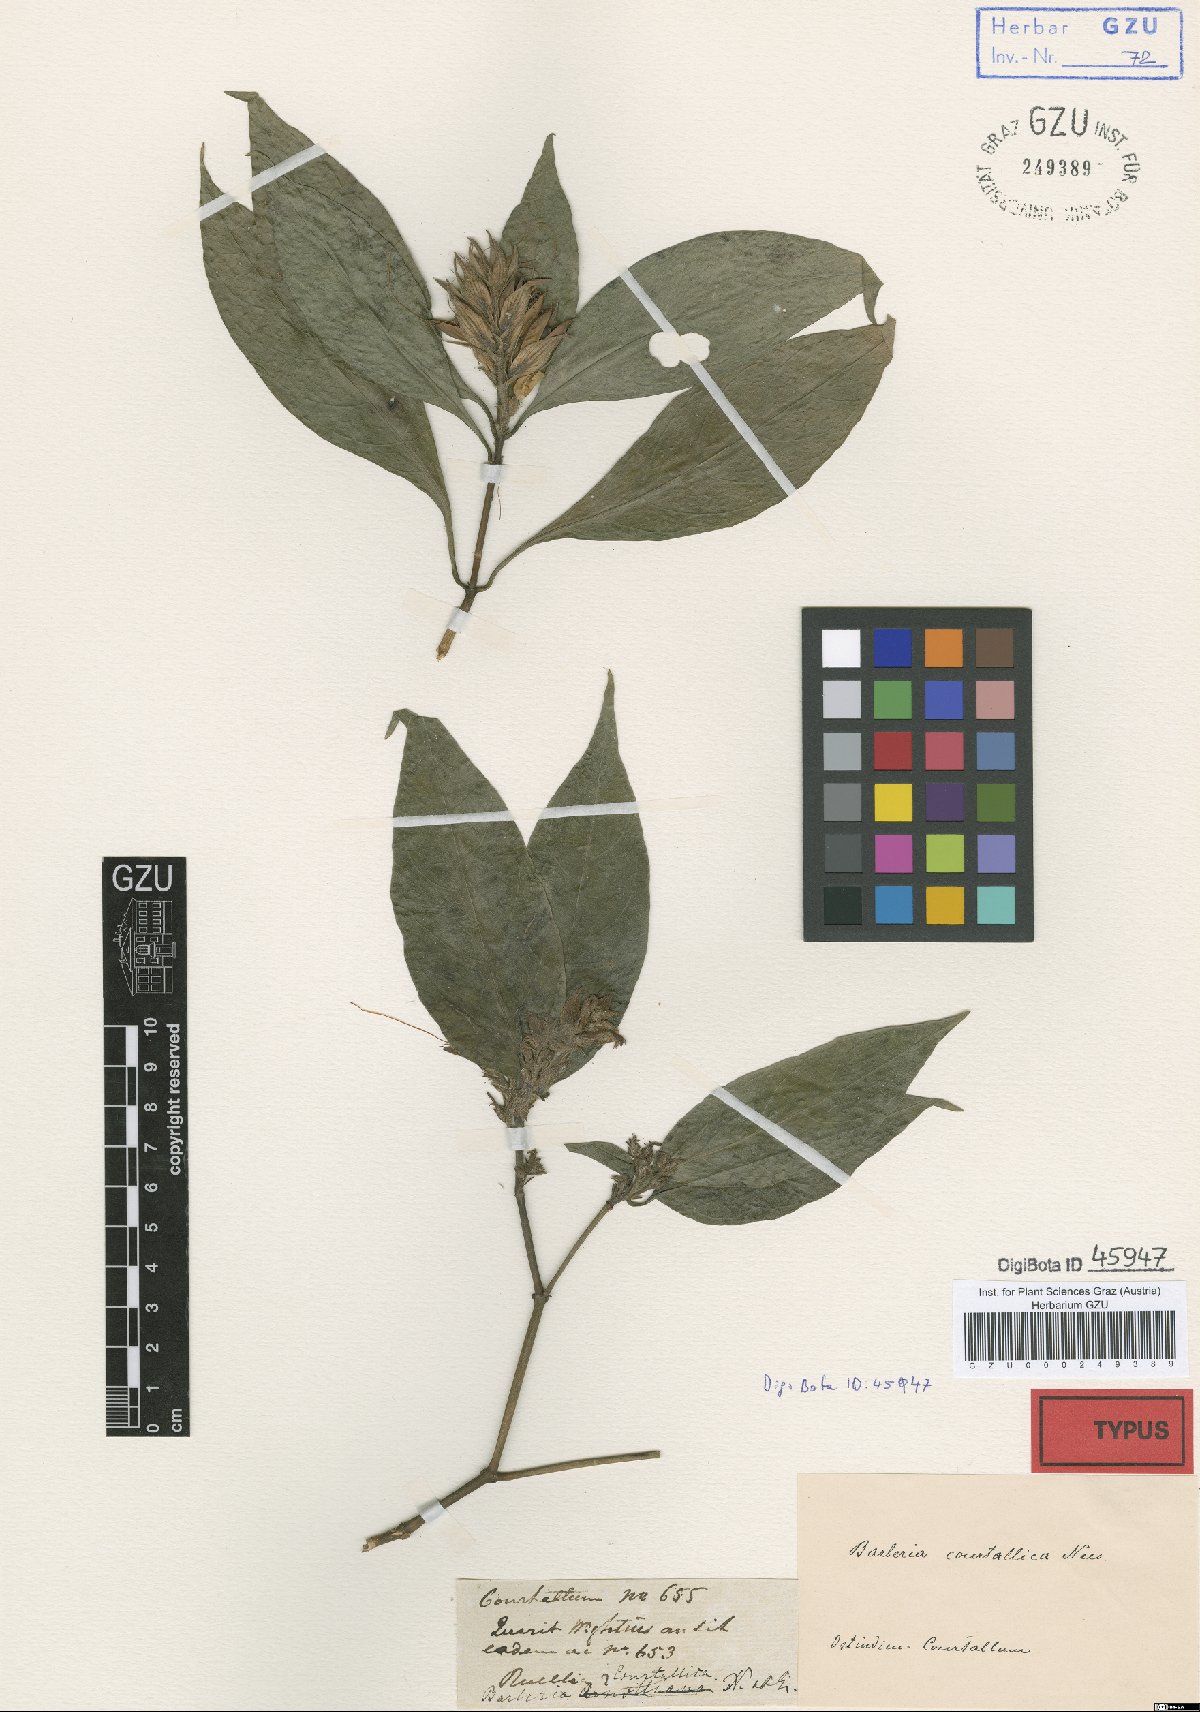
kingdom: Plantae
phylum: Tracheophyta
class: Magnoliopsida
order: Lamiales
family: Acanthaceae
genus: Barleria
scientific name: Barleria courtallica
